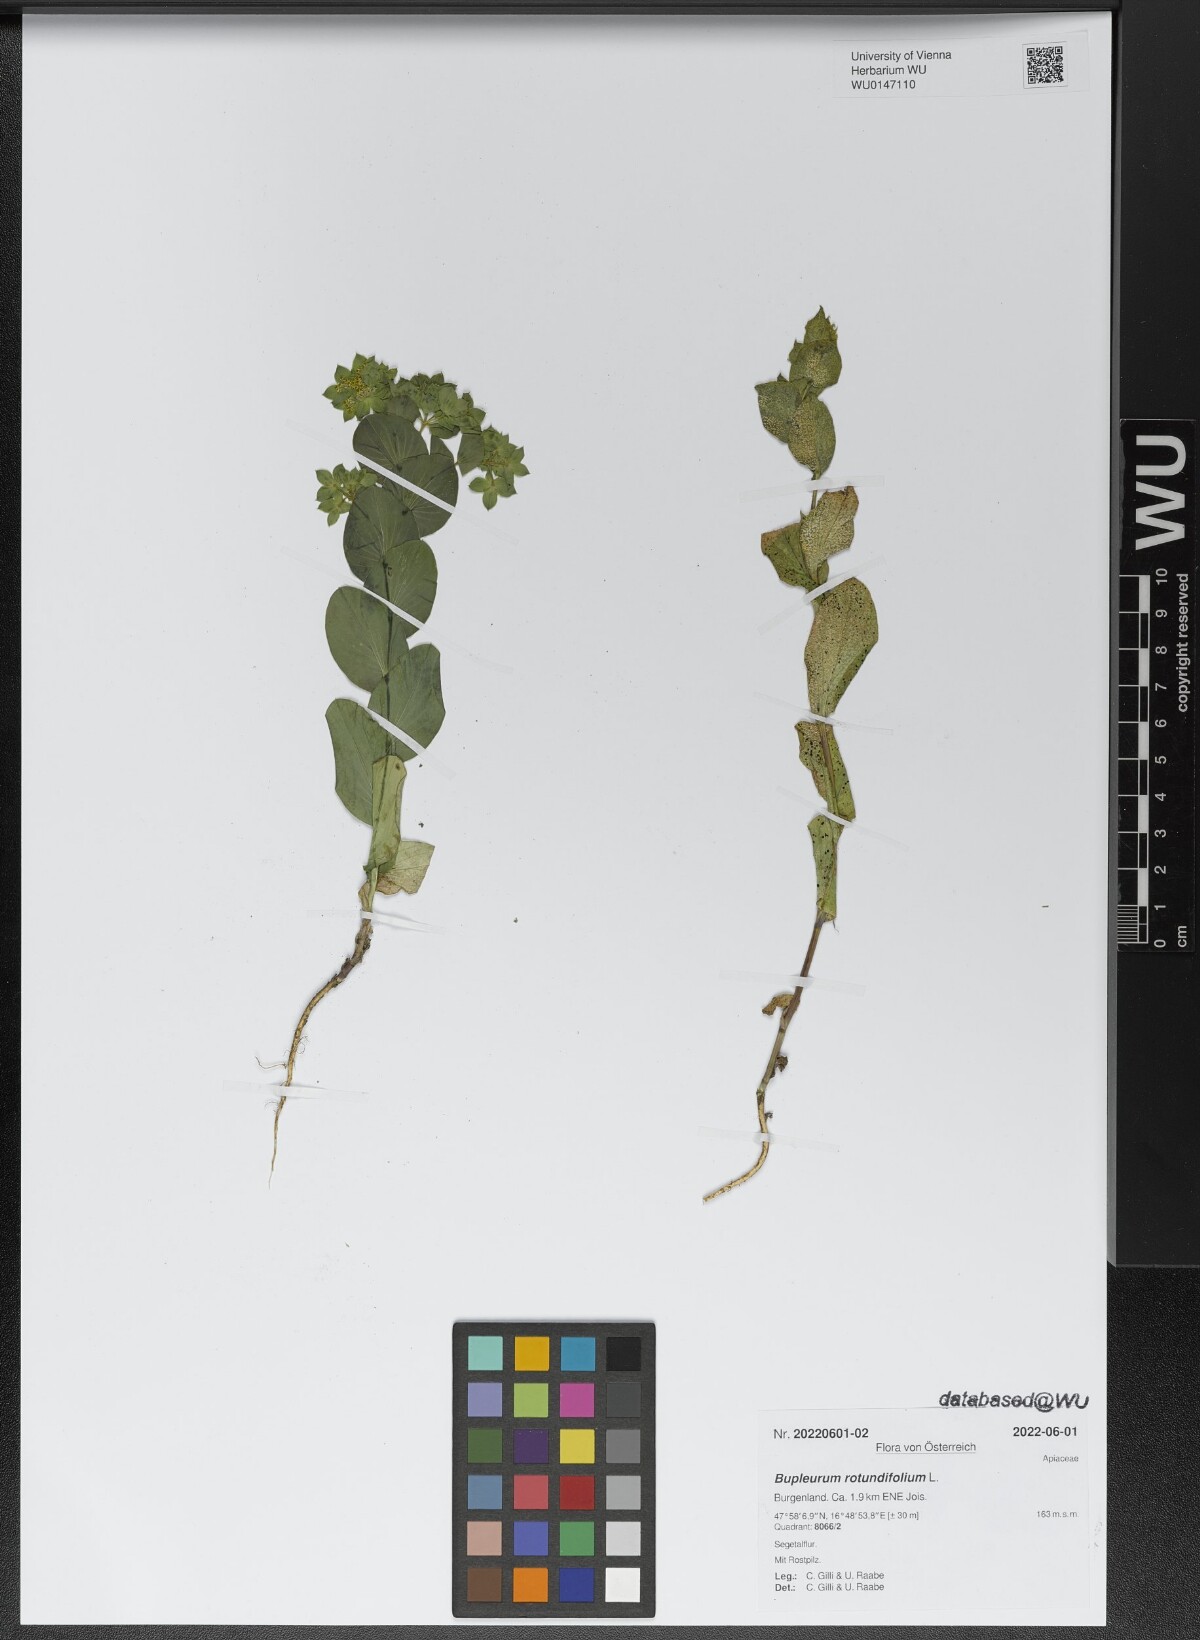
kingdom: Plantae
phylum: Tracheophyta
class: Magnoliopsida
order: Apiales
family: Apiaceae
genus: Bupleurum
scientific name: Bupleurum rotundifolium
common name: Thorow-wax
